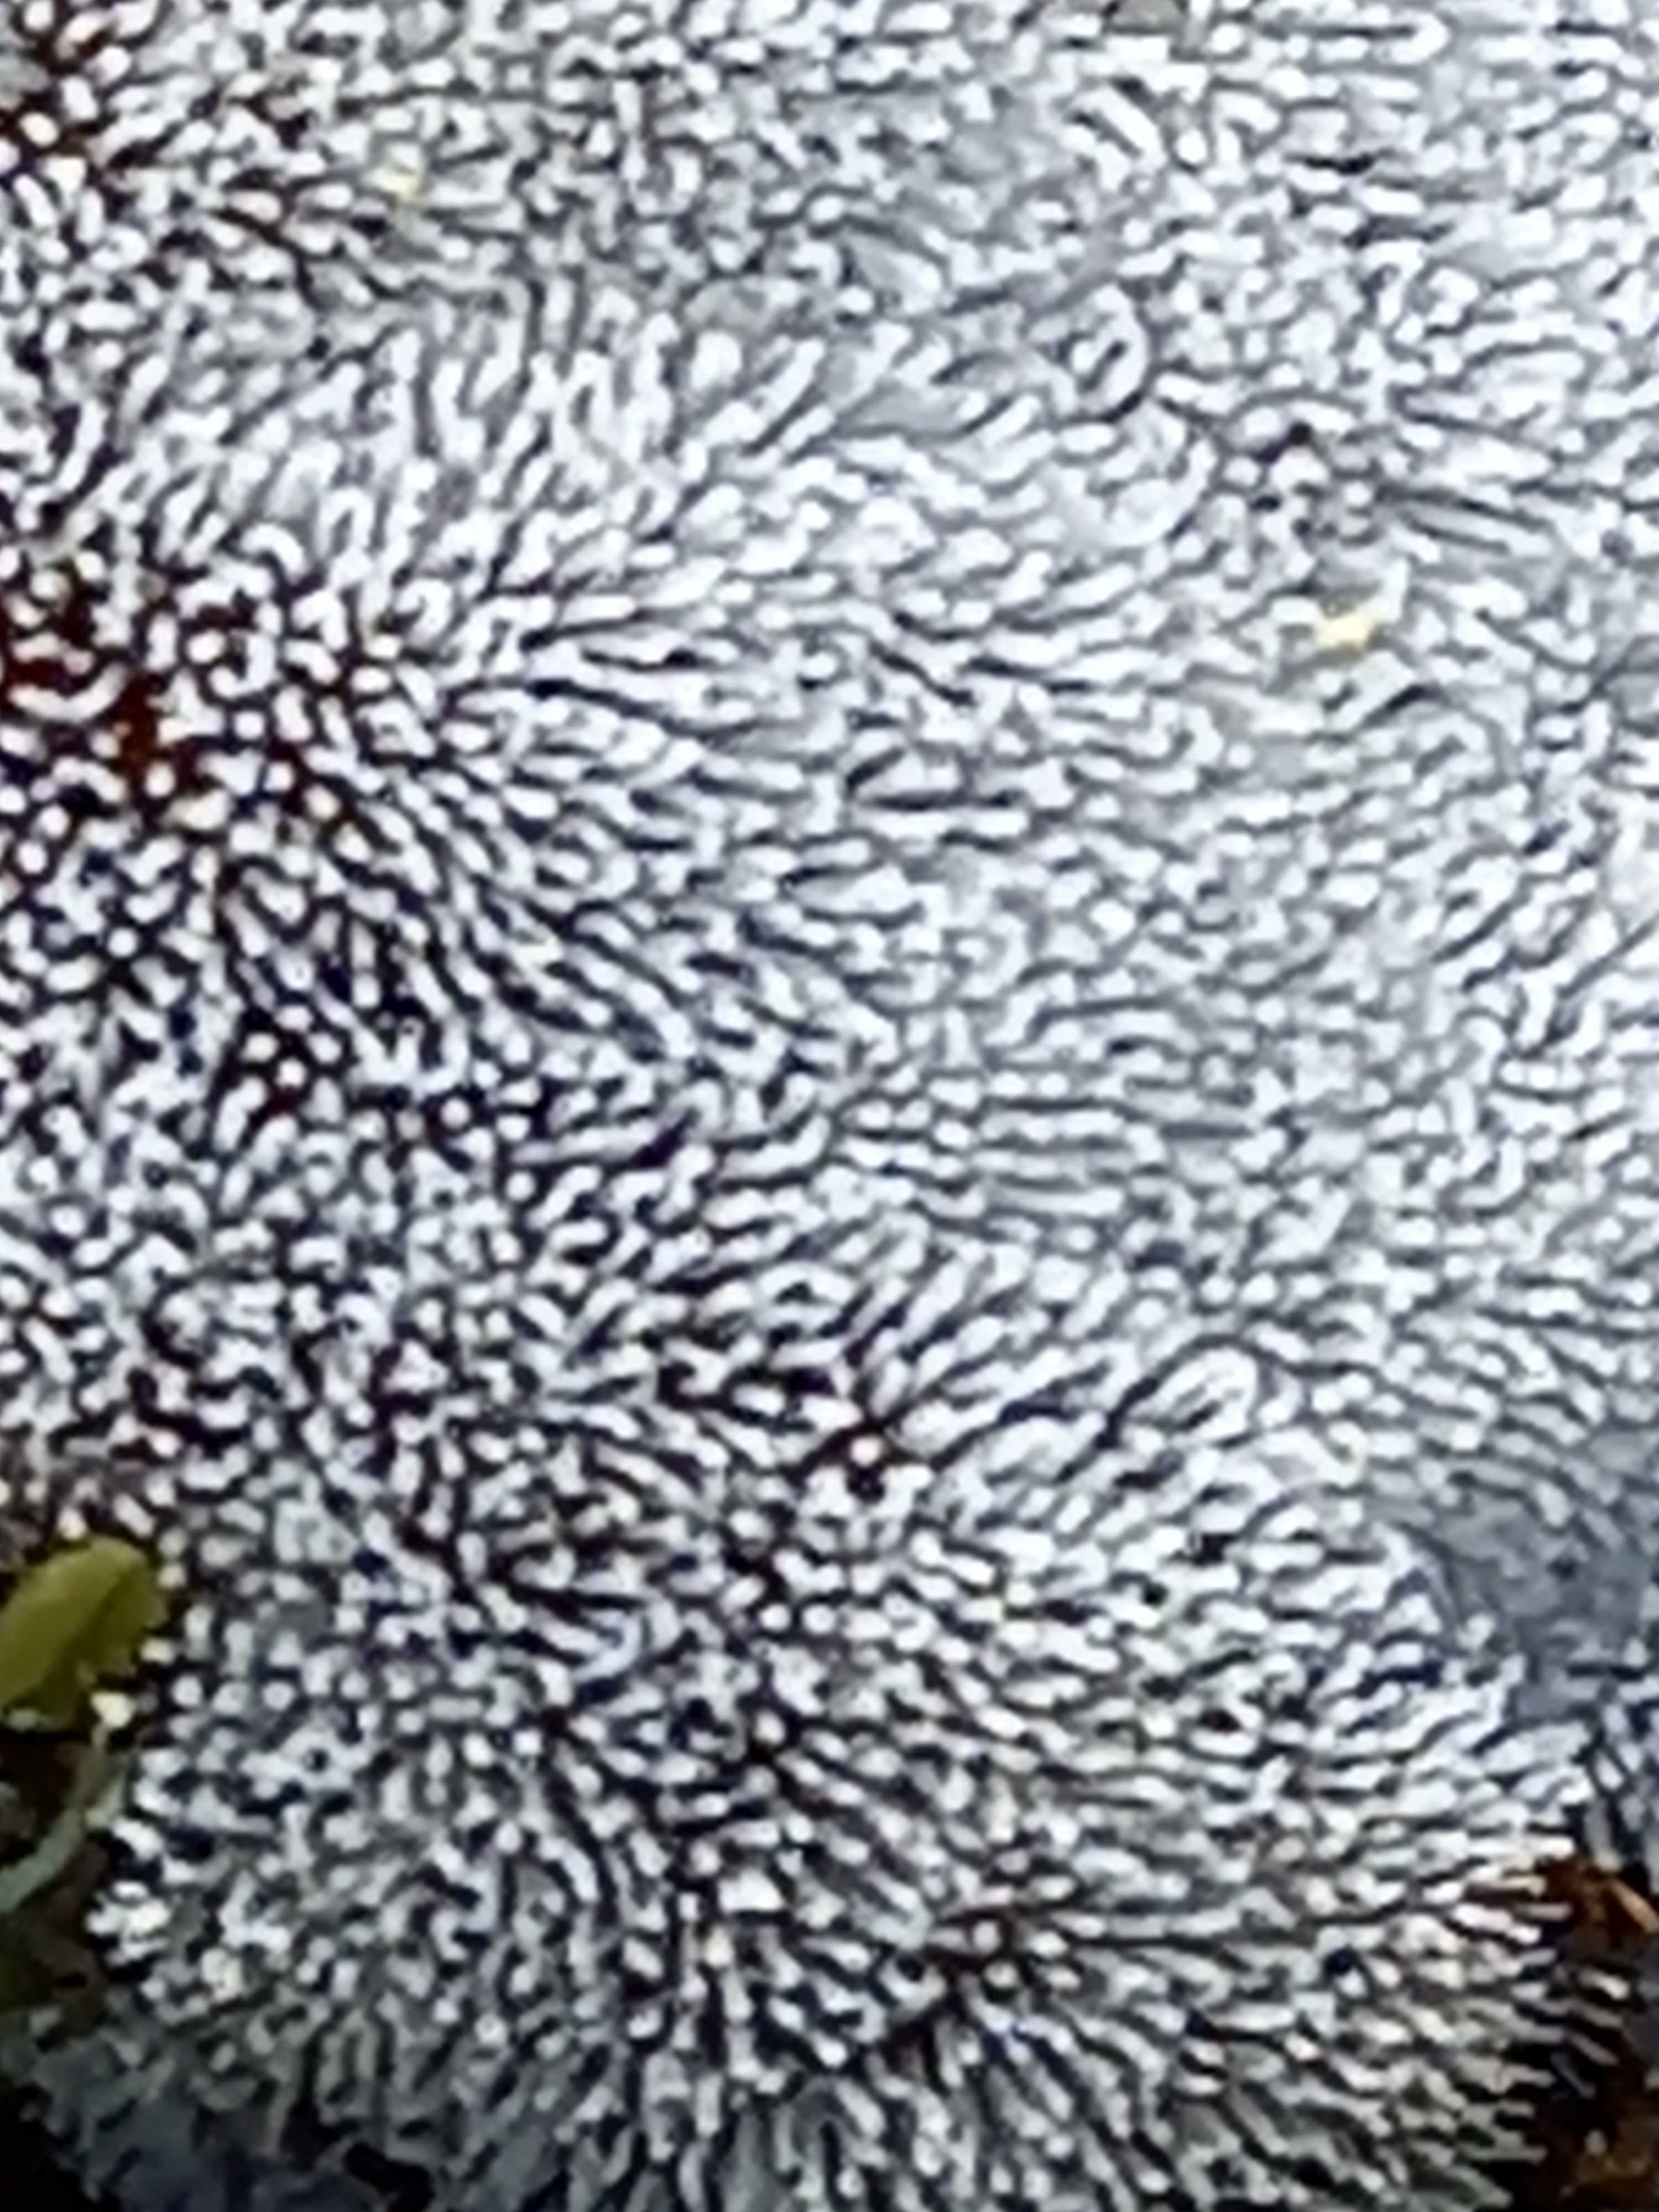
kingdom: Protozoa
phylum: Amoebozoa
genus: Ceratiomyxa
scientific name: Ceratiomyxa
